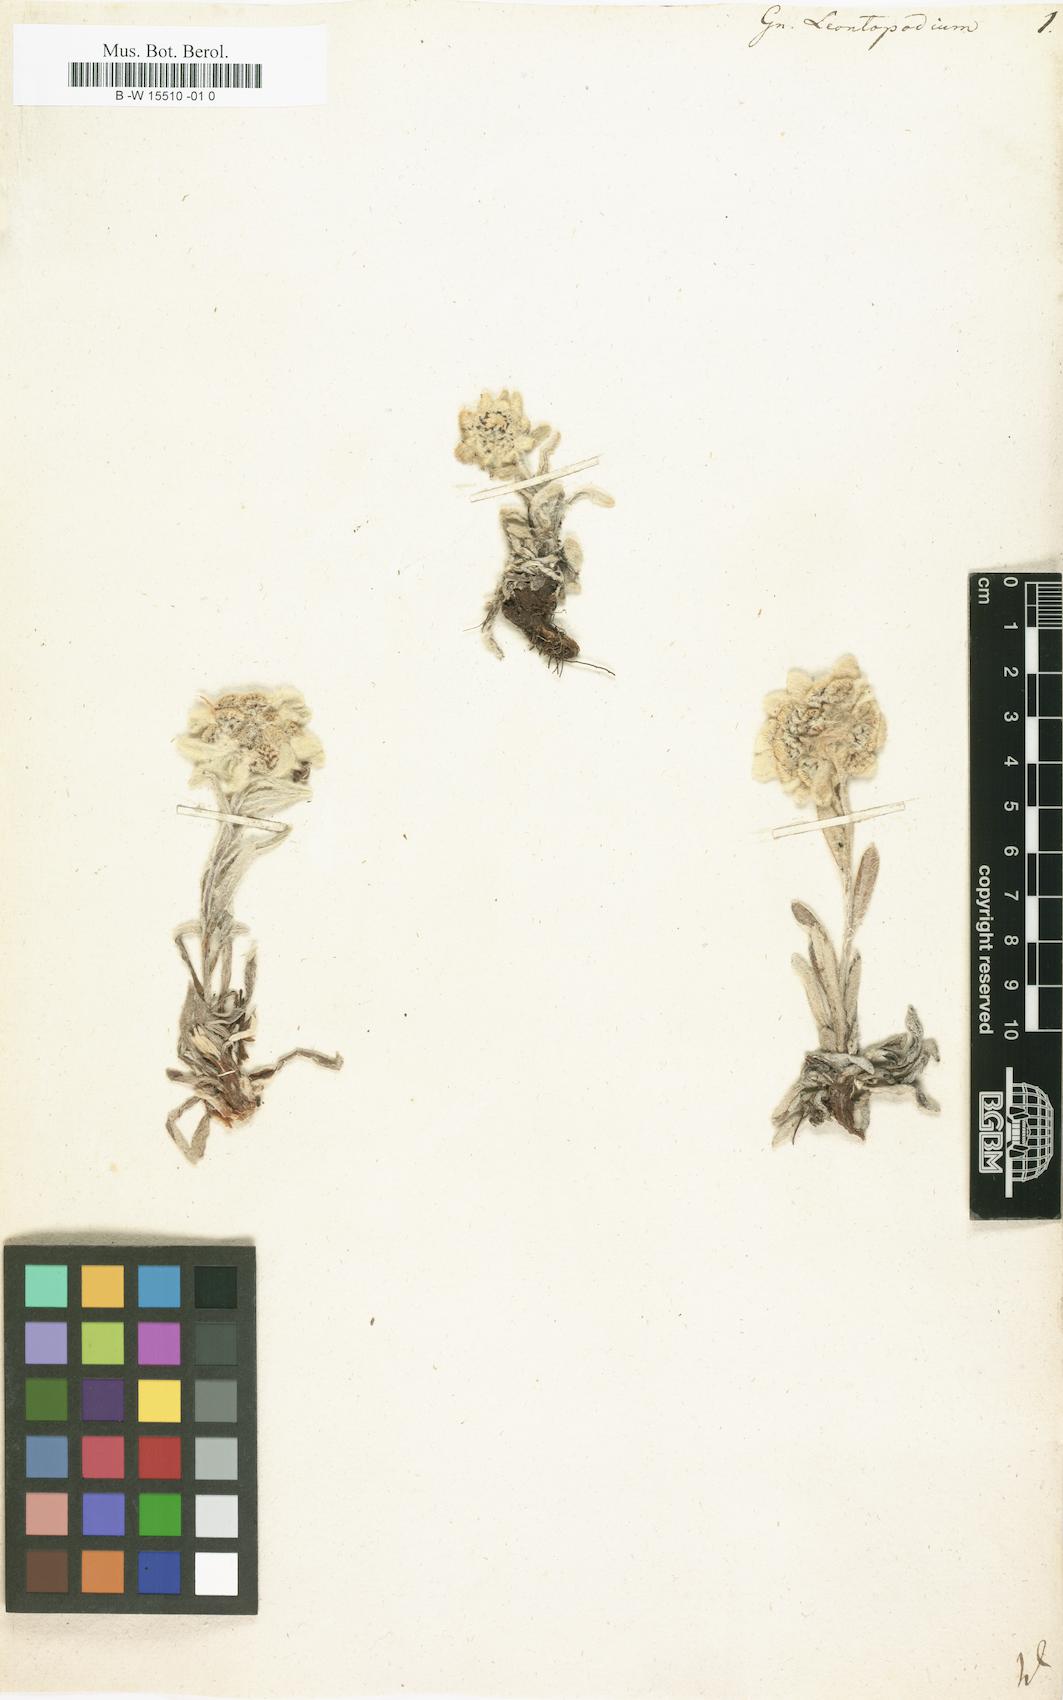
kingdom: Plantae
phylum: Tracheophyta
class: Magnoliopsida
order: Asterales
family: Asteraceae
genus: Gnaphalium
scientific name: Gnaphalium leontopodium
